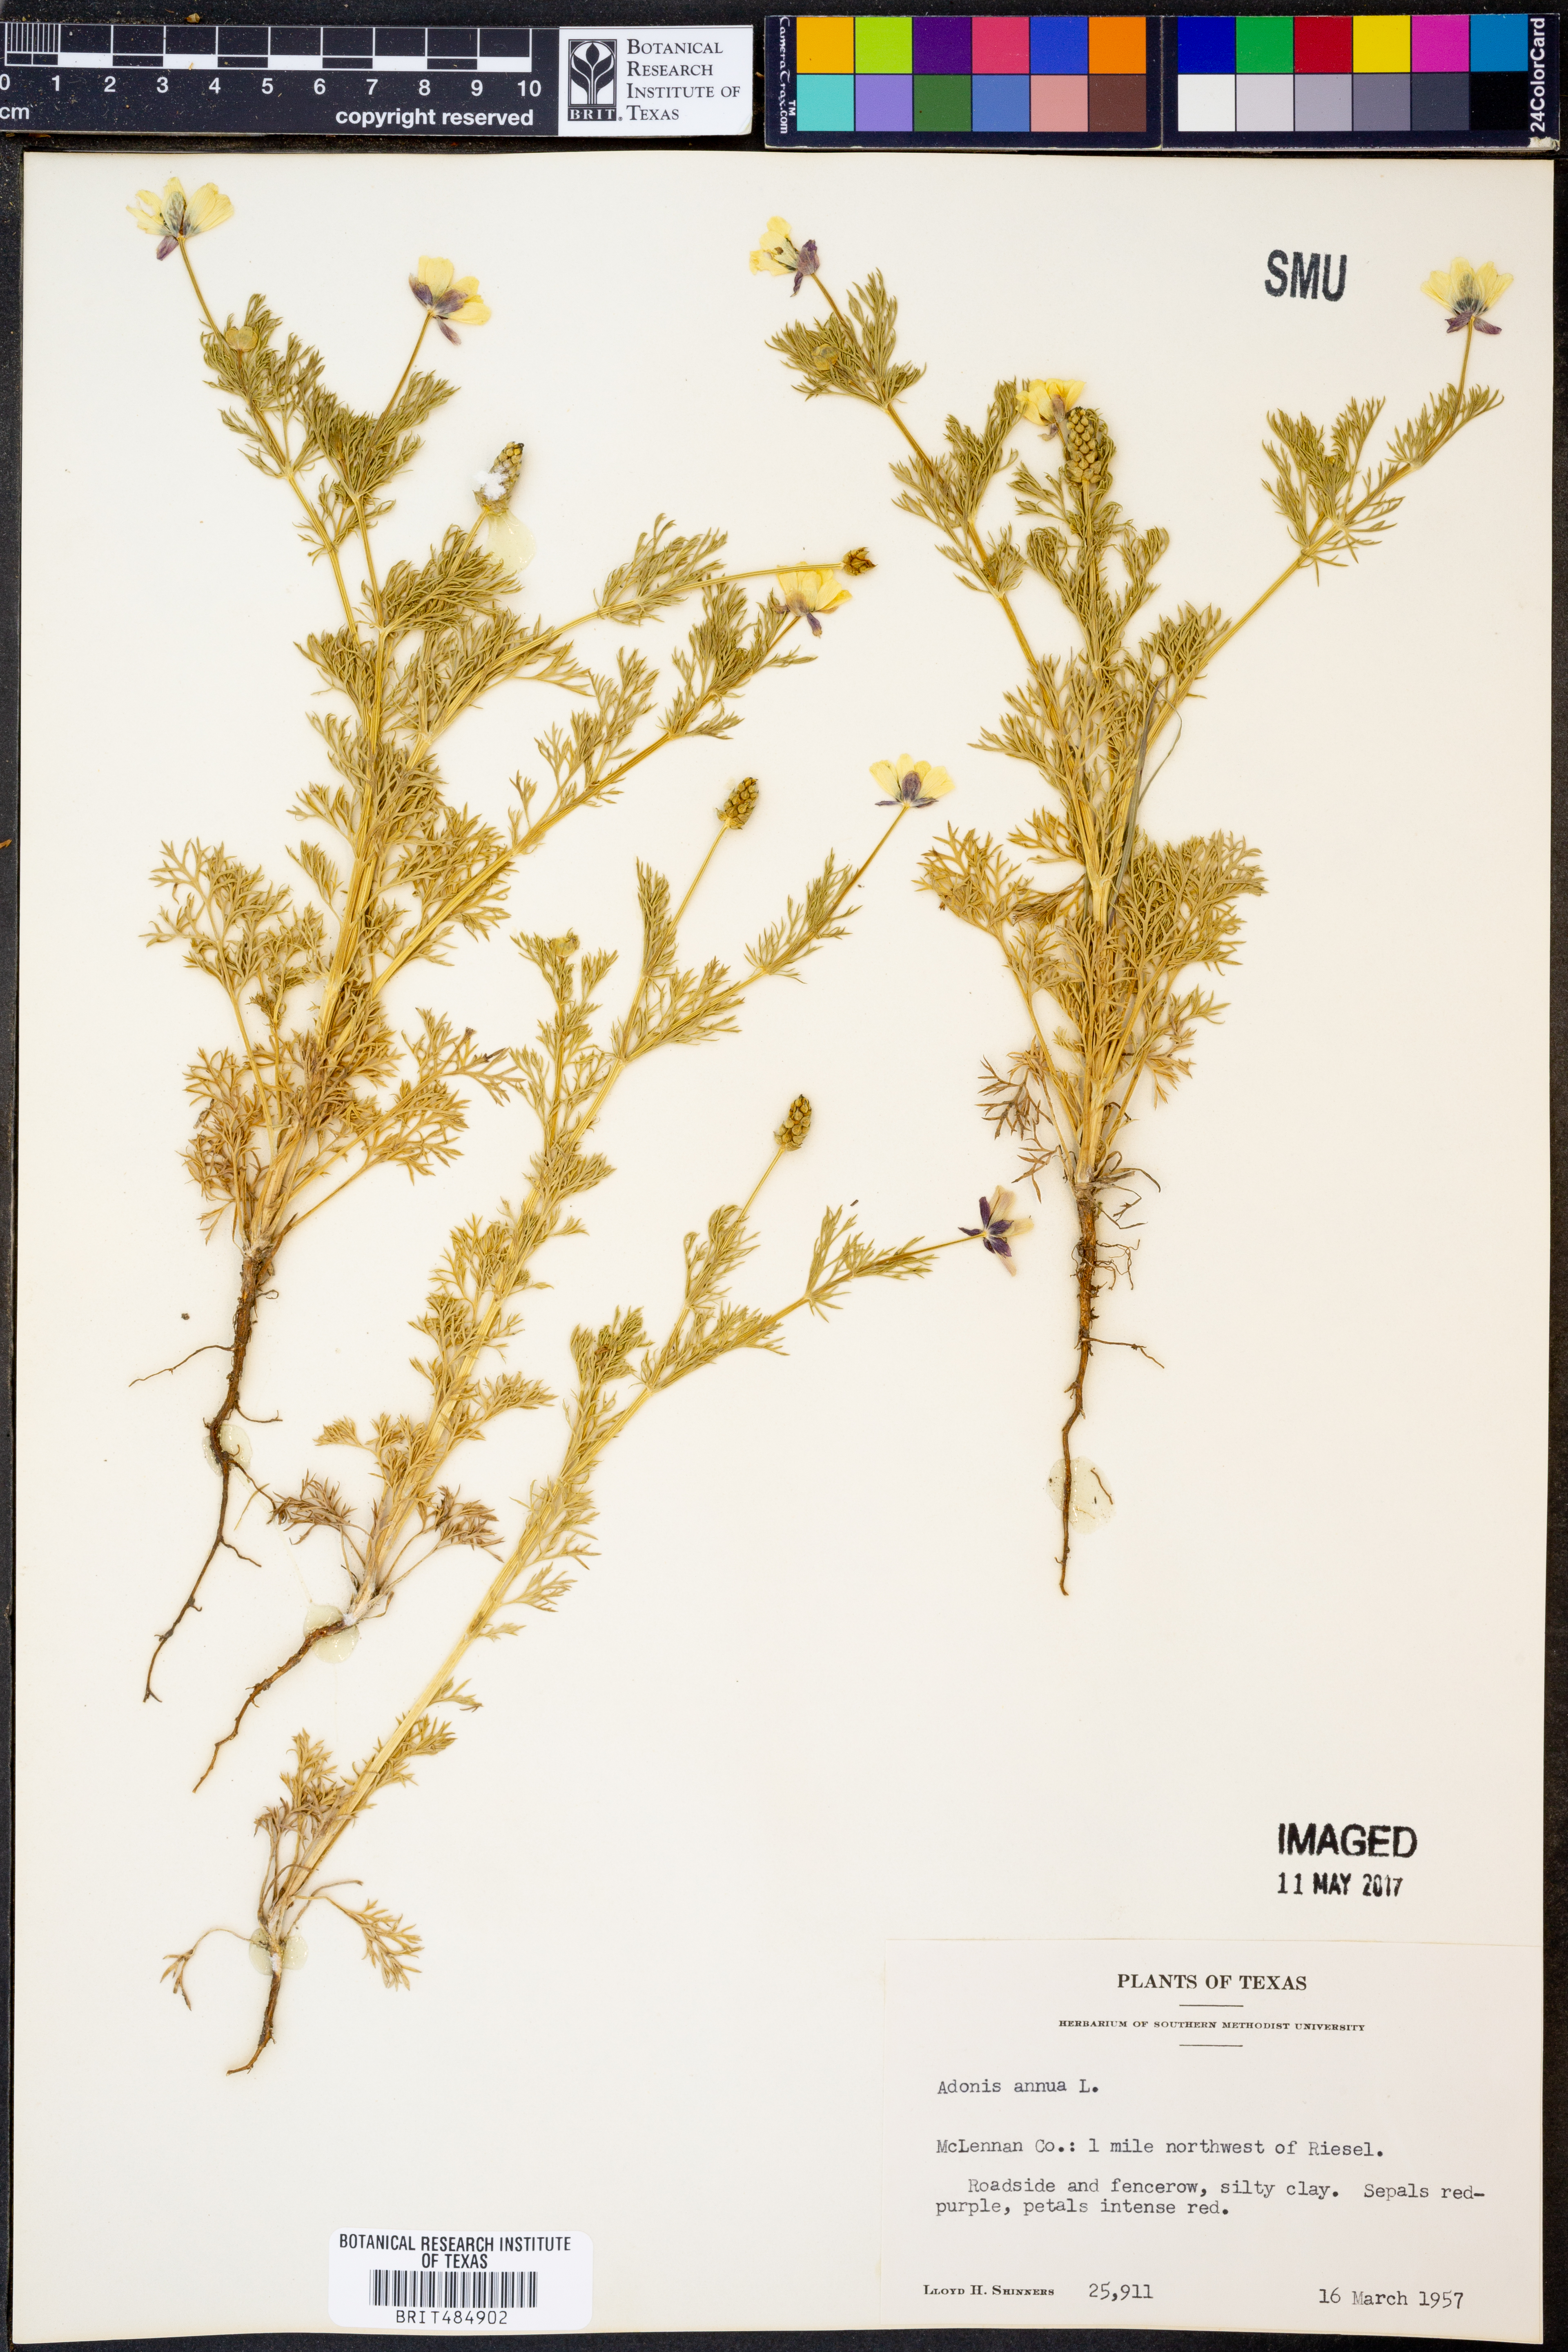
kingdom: Plantae
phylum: Tracheophyta
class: Magnoliopsida
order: Ranunculales
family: Ranunculaceae
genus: Adonis
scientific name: Adonis annua
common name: Pheasant's-eye
